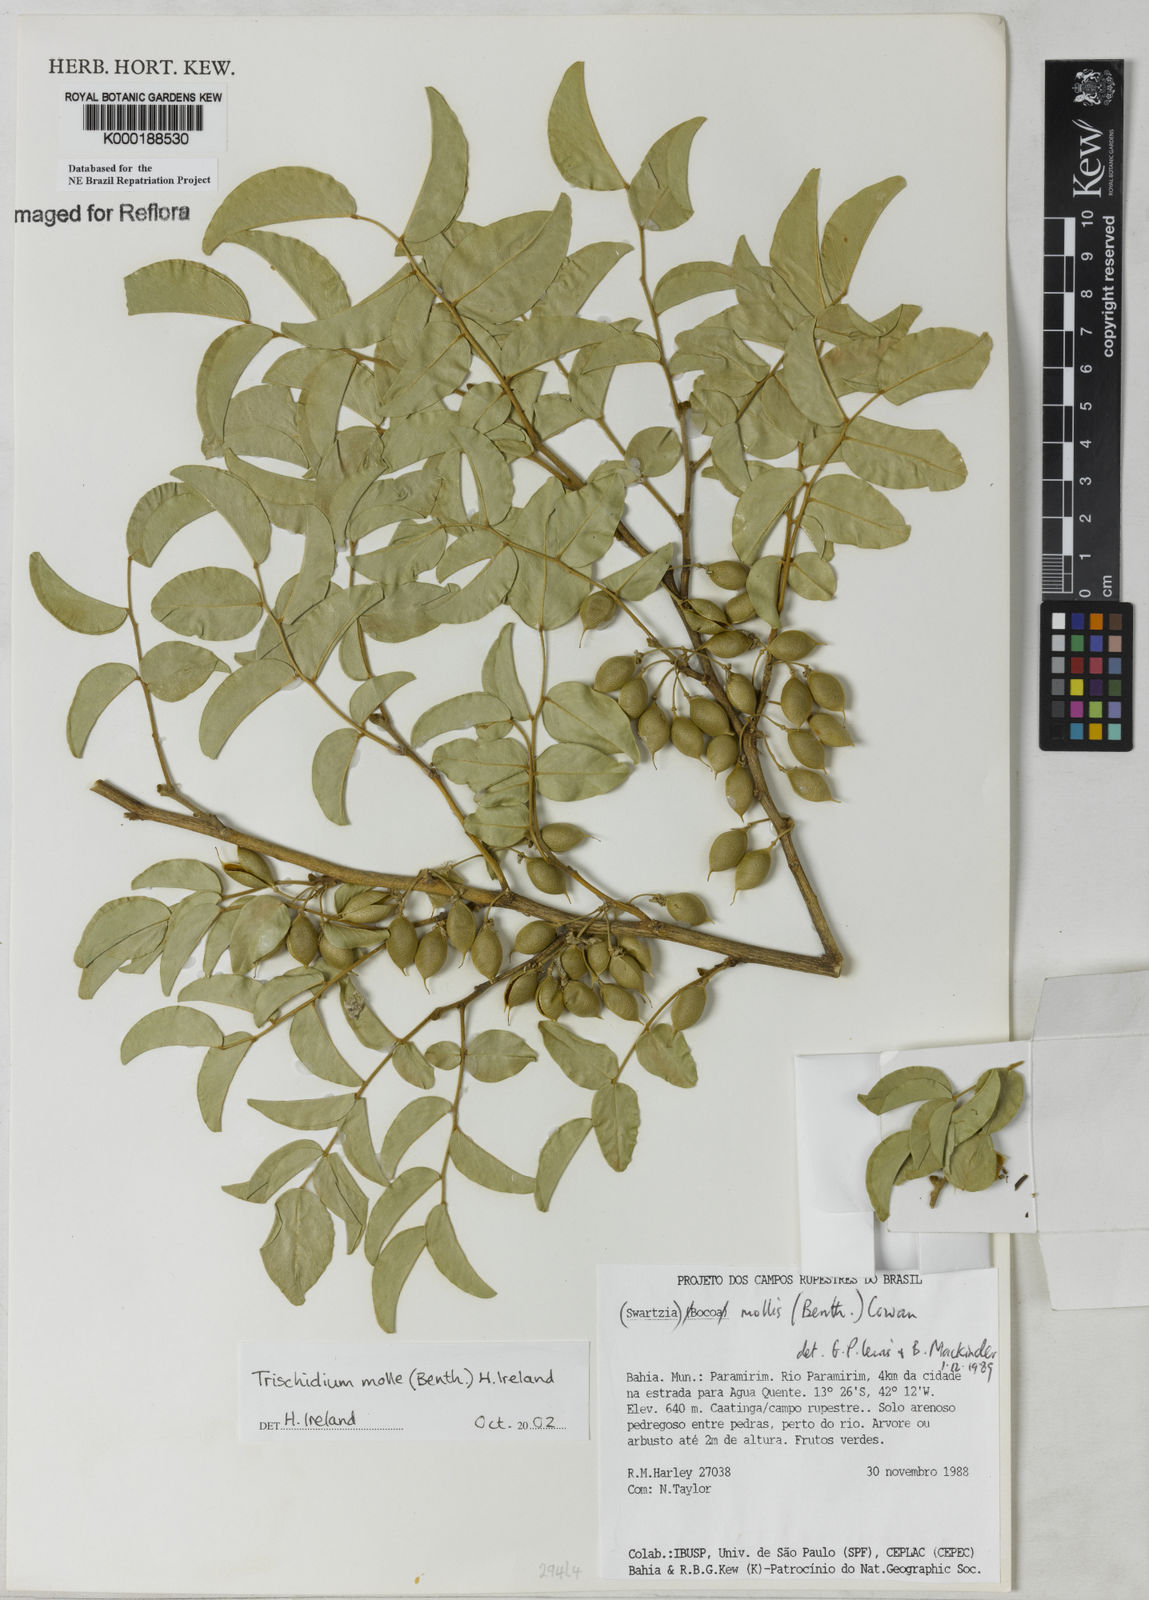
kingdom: Plantae
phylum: Tracheophyta
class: Magnoliopsida
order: Fabales
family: Fabaceae
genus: Trischidium
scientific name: Trischidium
